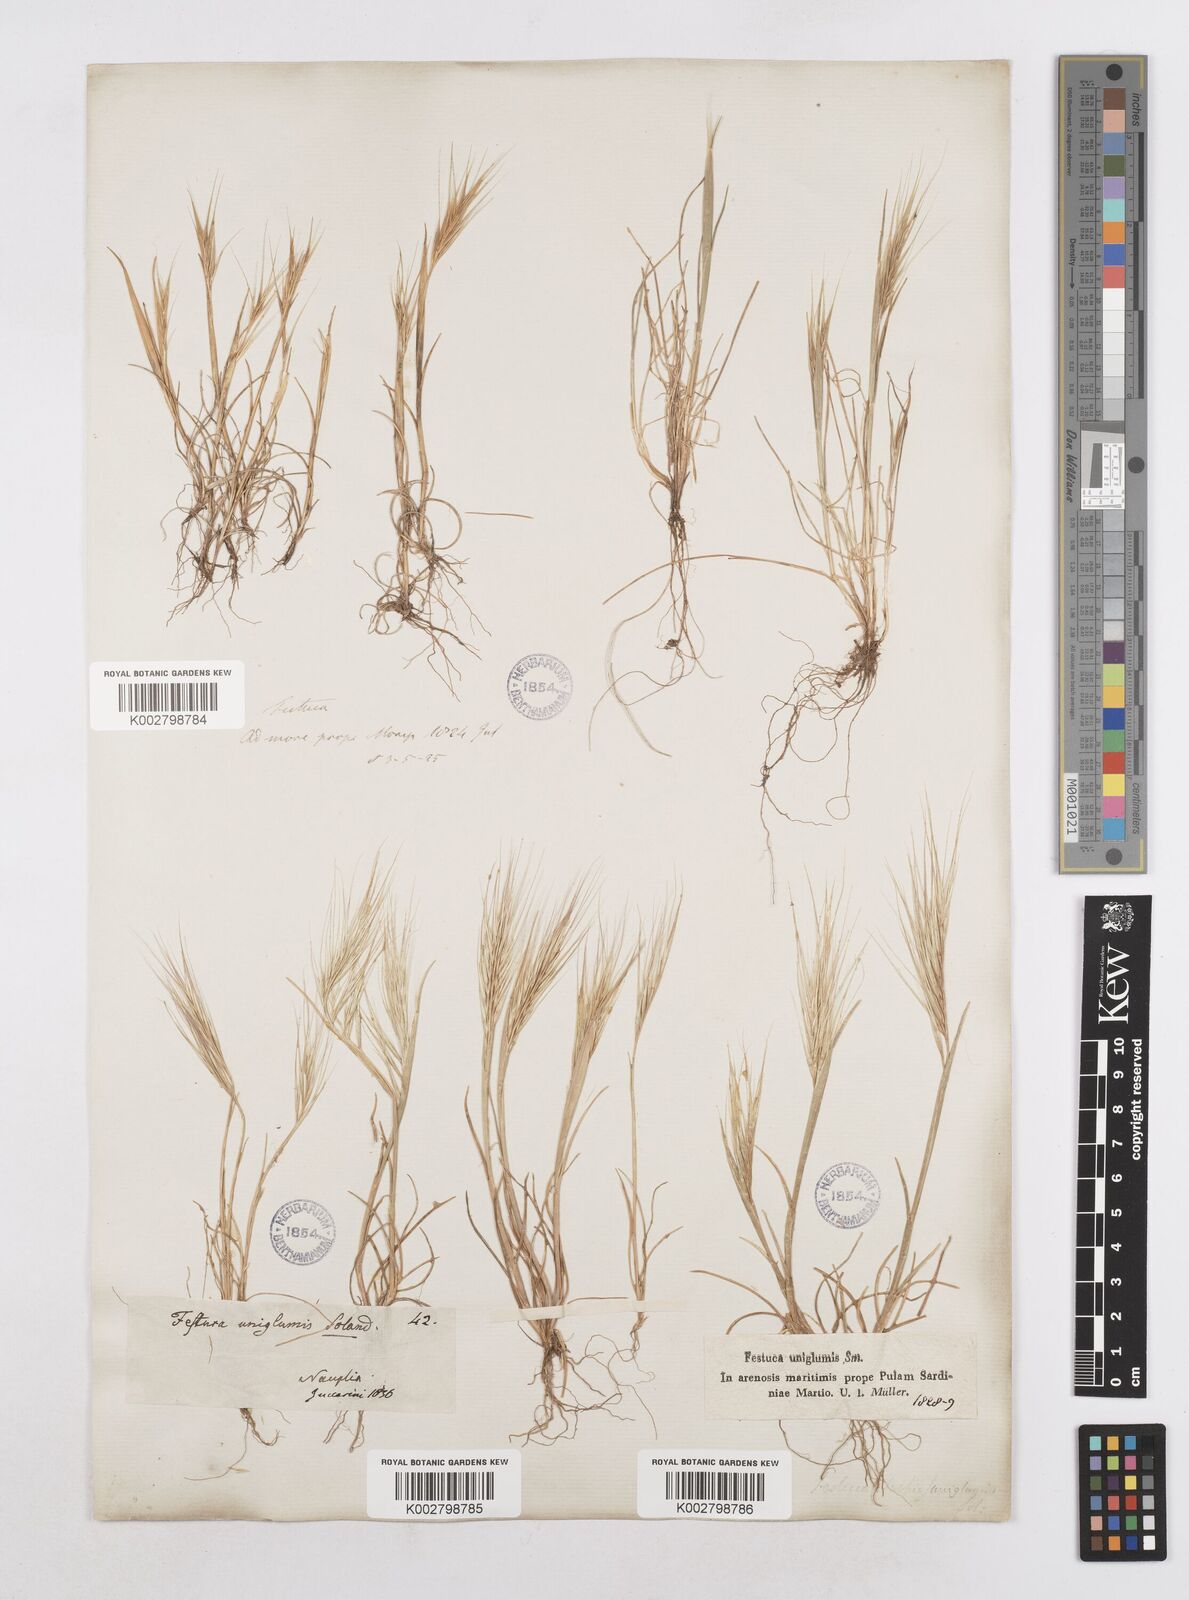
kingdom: Plantae
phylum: Tracheophyta
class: Liliopsida
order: Poales
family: Poaceae
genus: Festuca
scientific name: Festuca fasciculata
